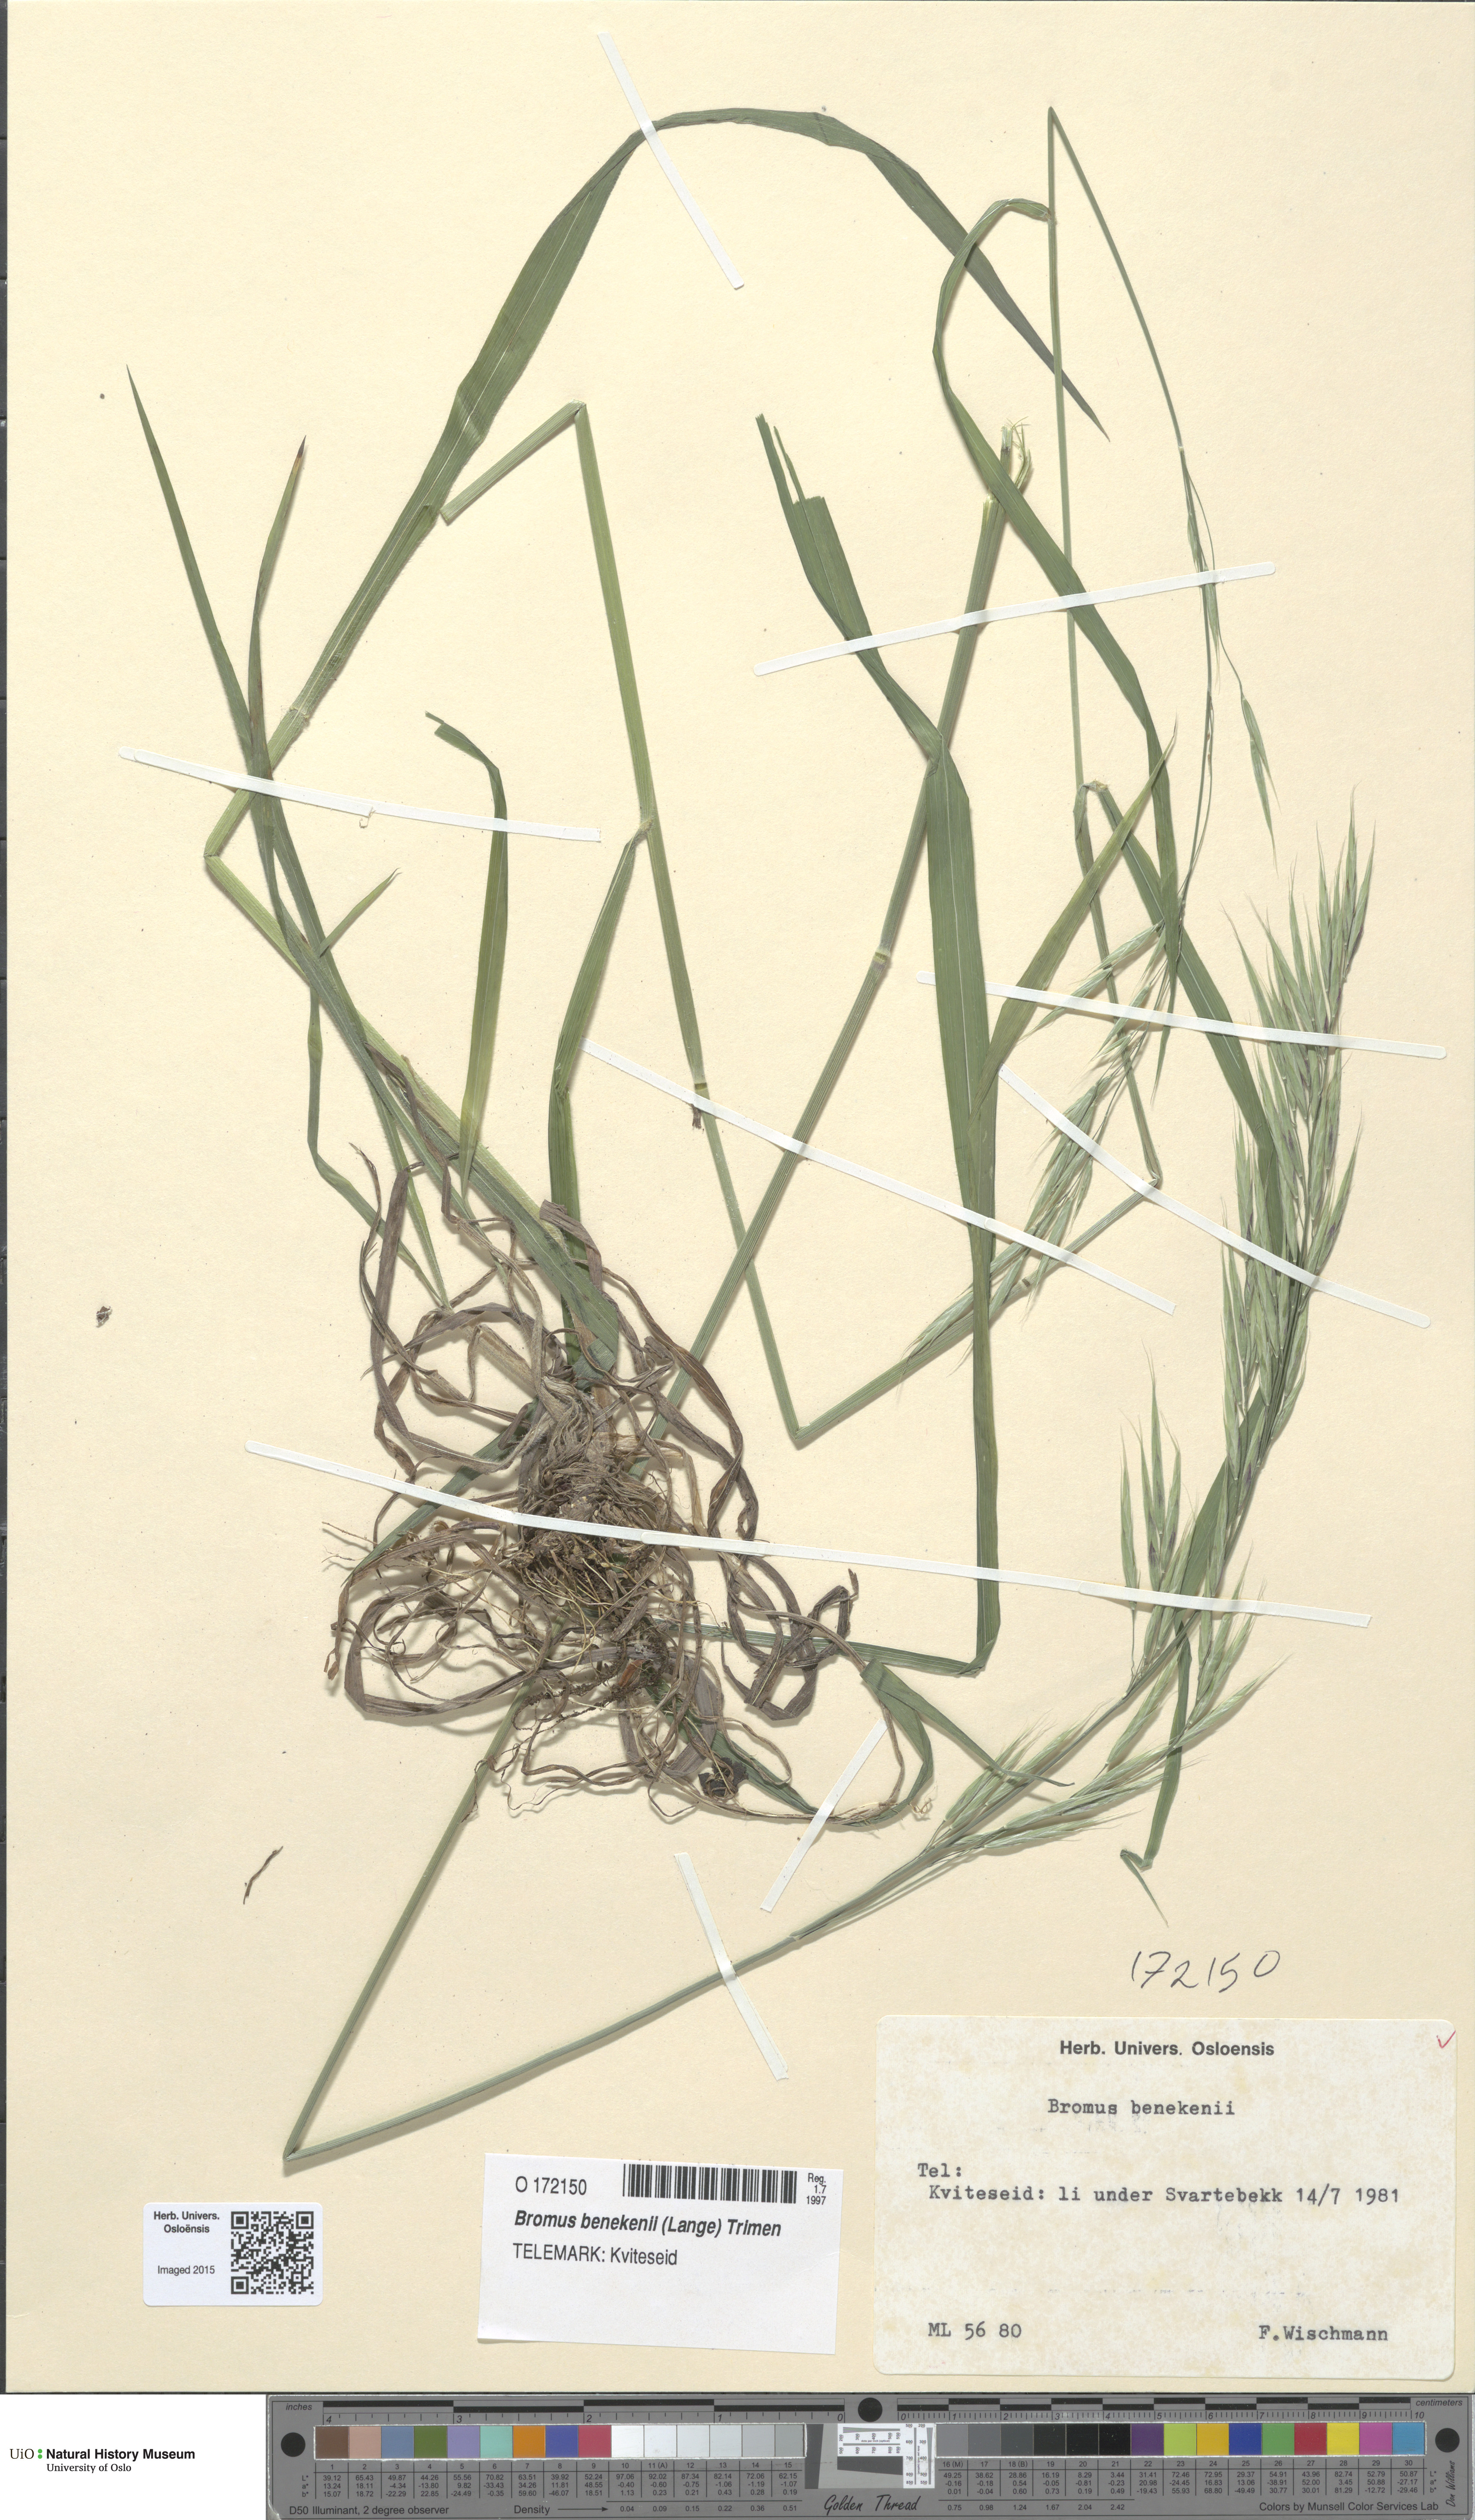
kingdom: Plantae
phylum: Tracheophyta
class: Liliopsida
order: Poales
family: Poaceae
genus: Bromus
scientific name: Bromus benekenii
